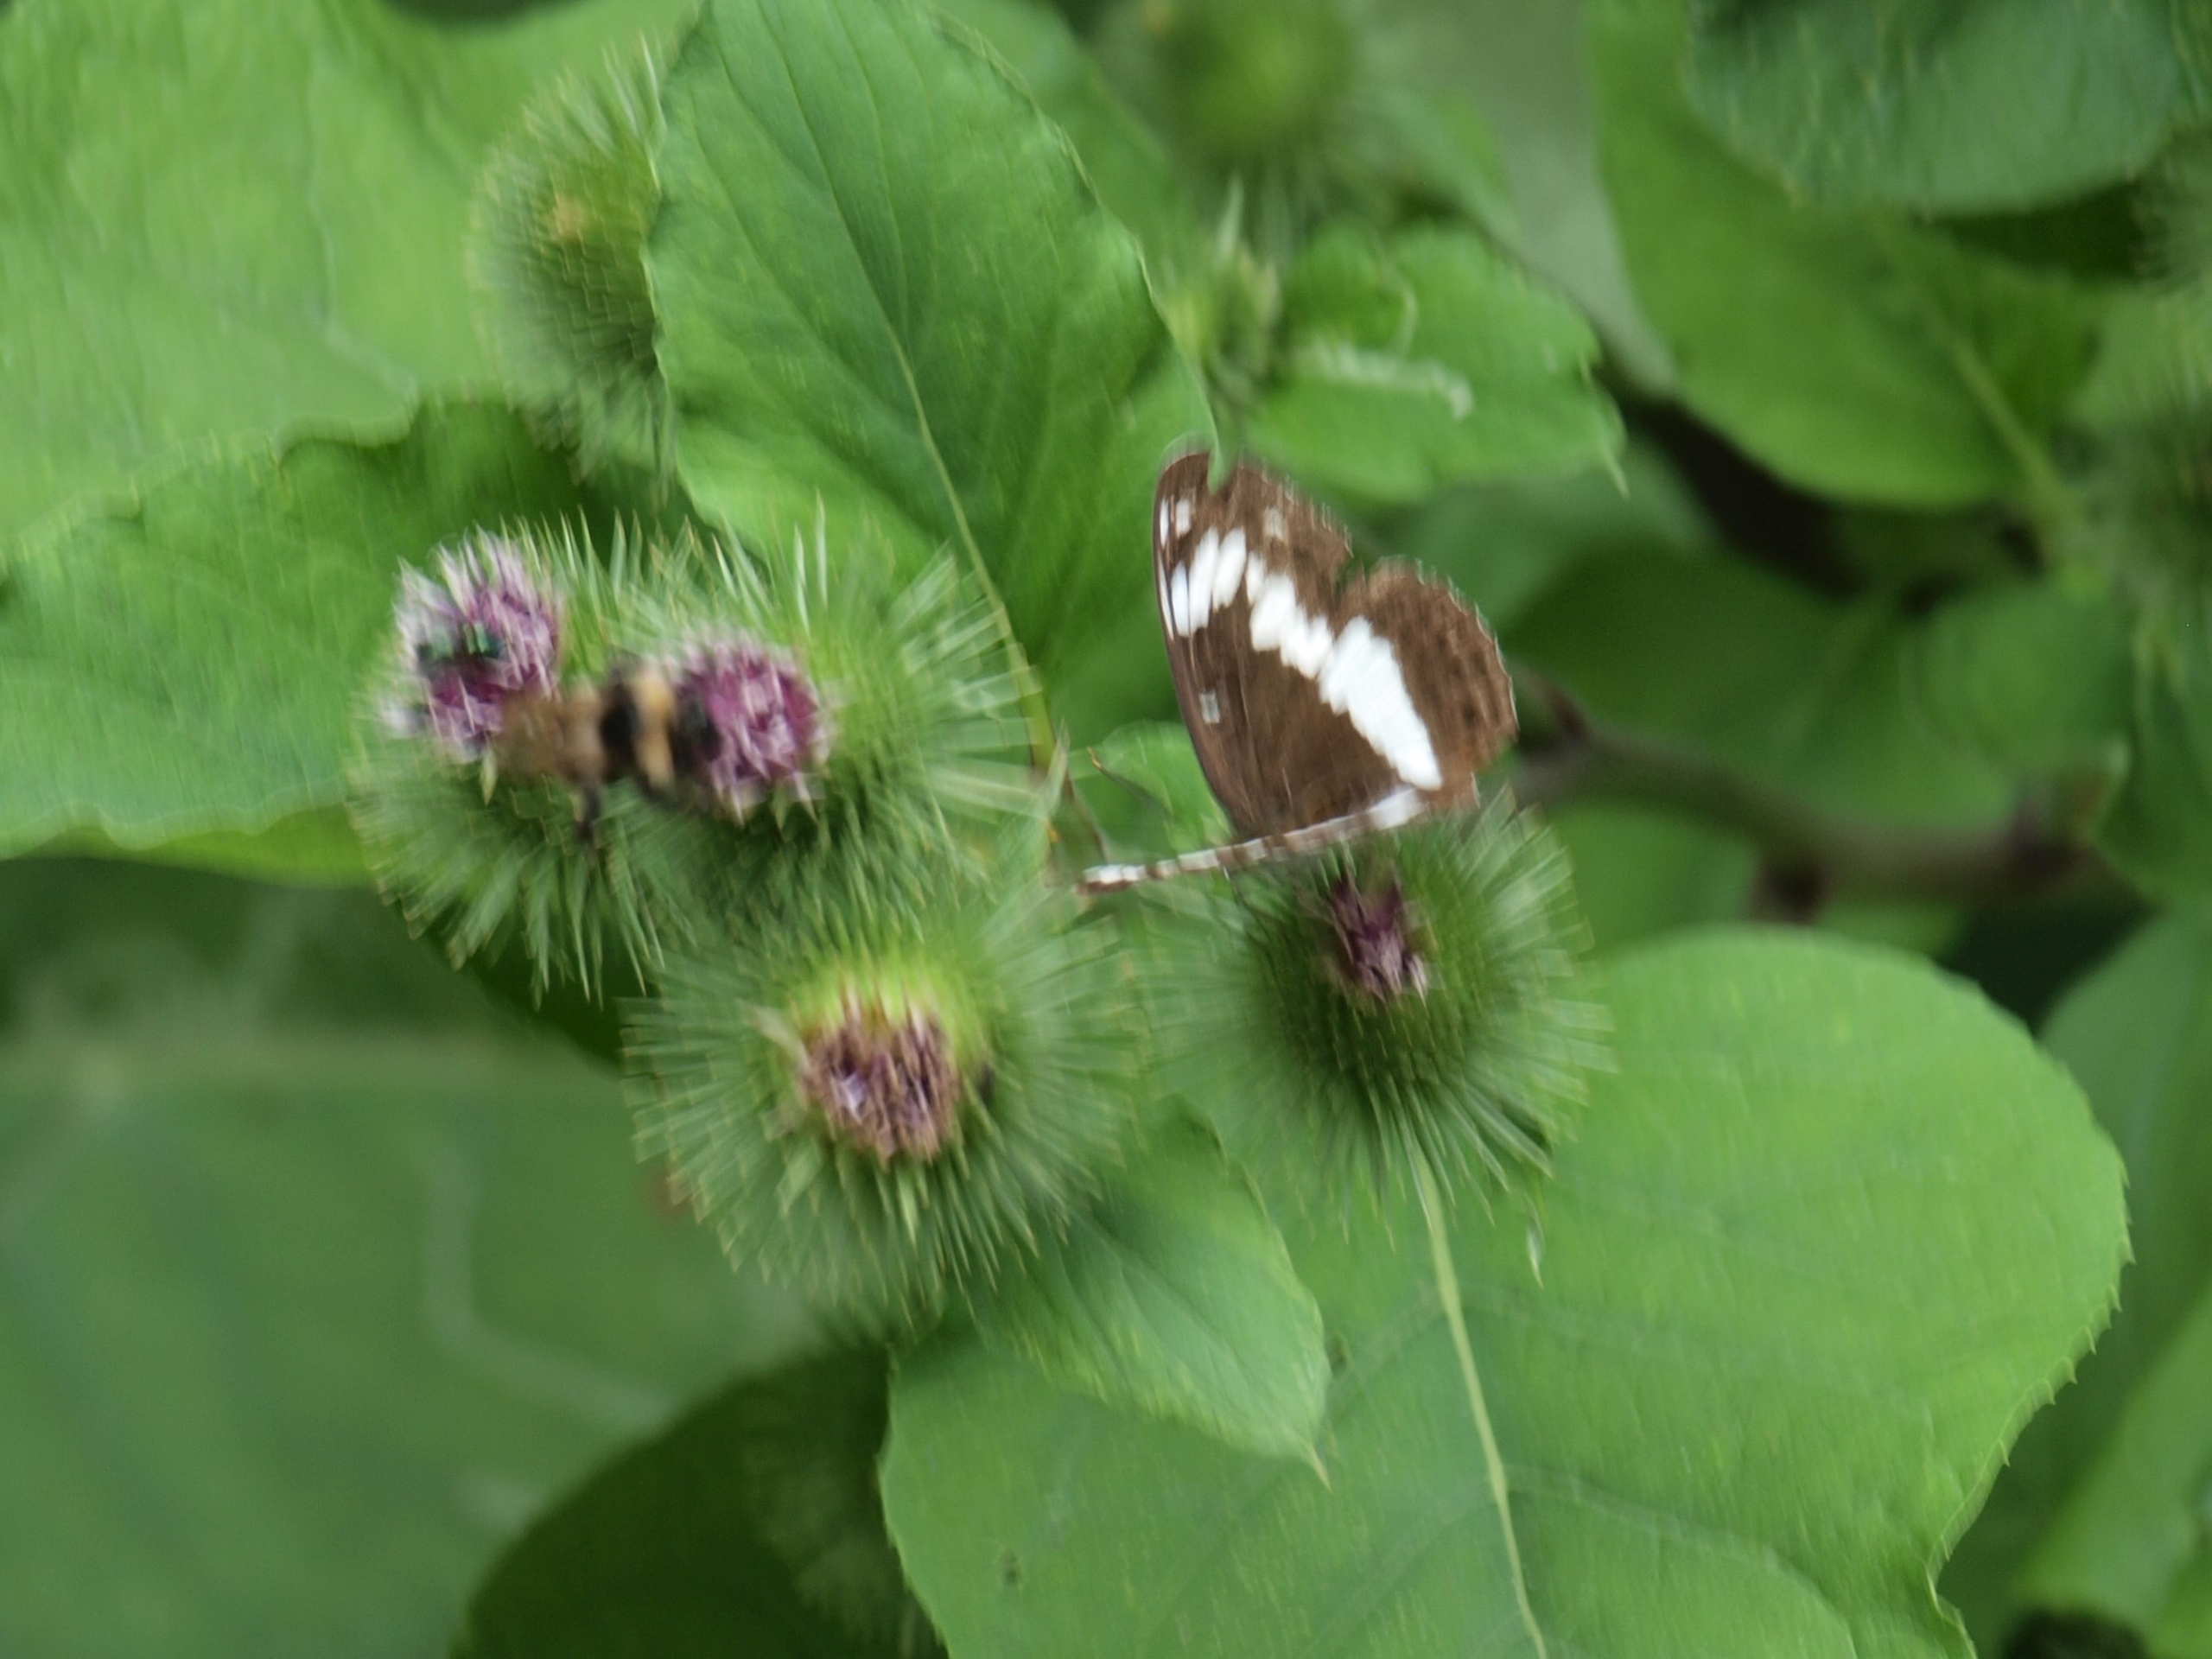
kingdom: Animalia
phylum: Arthropoda
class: Insecta
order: Lepidoptera
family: Nymphalidae
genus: Ladoga
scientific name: Ladoga camilla
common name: Hvid admiral
